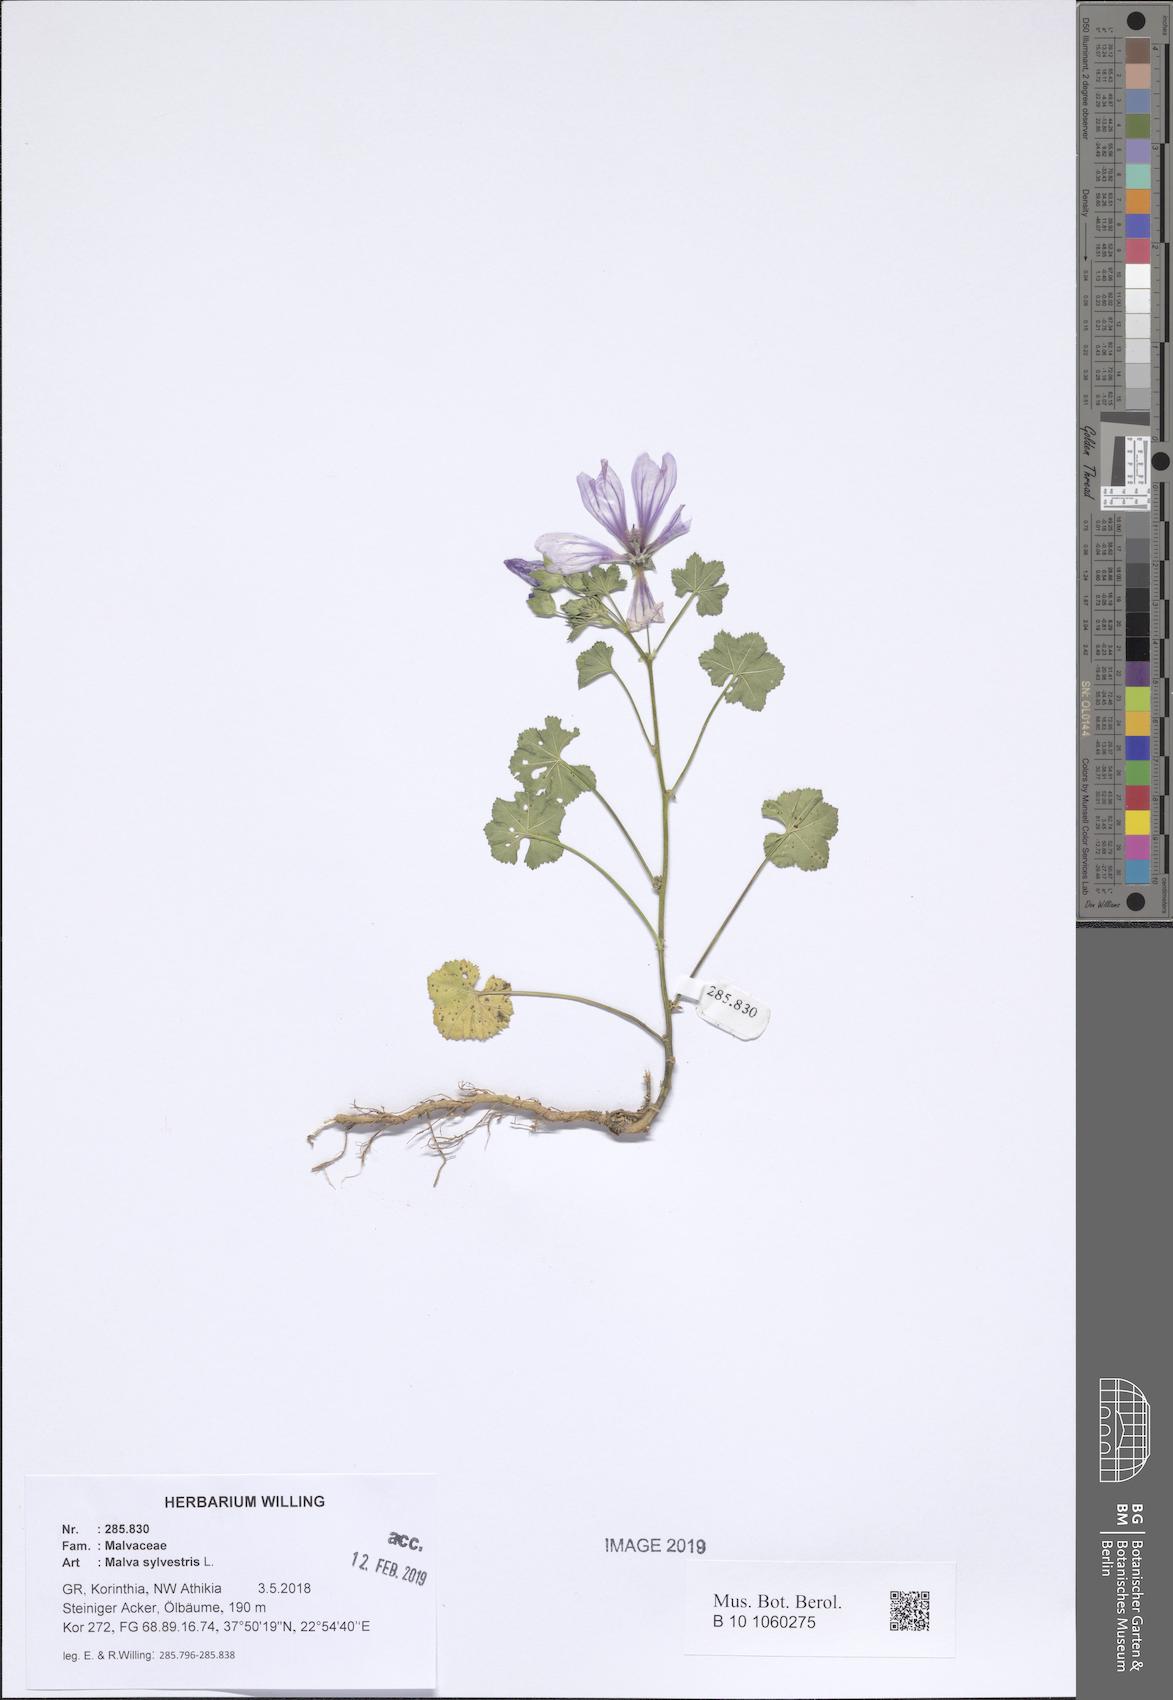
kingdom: Plantae
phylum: Tracheophyta
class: Magnoliopsida
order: Malvales
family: Malvaceae
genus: Malva
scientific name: Malva sylvestris
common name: Common mallow
